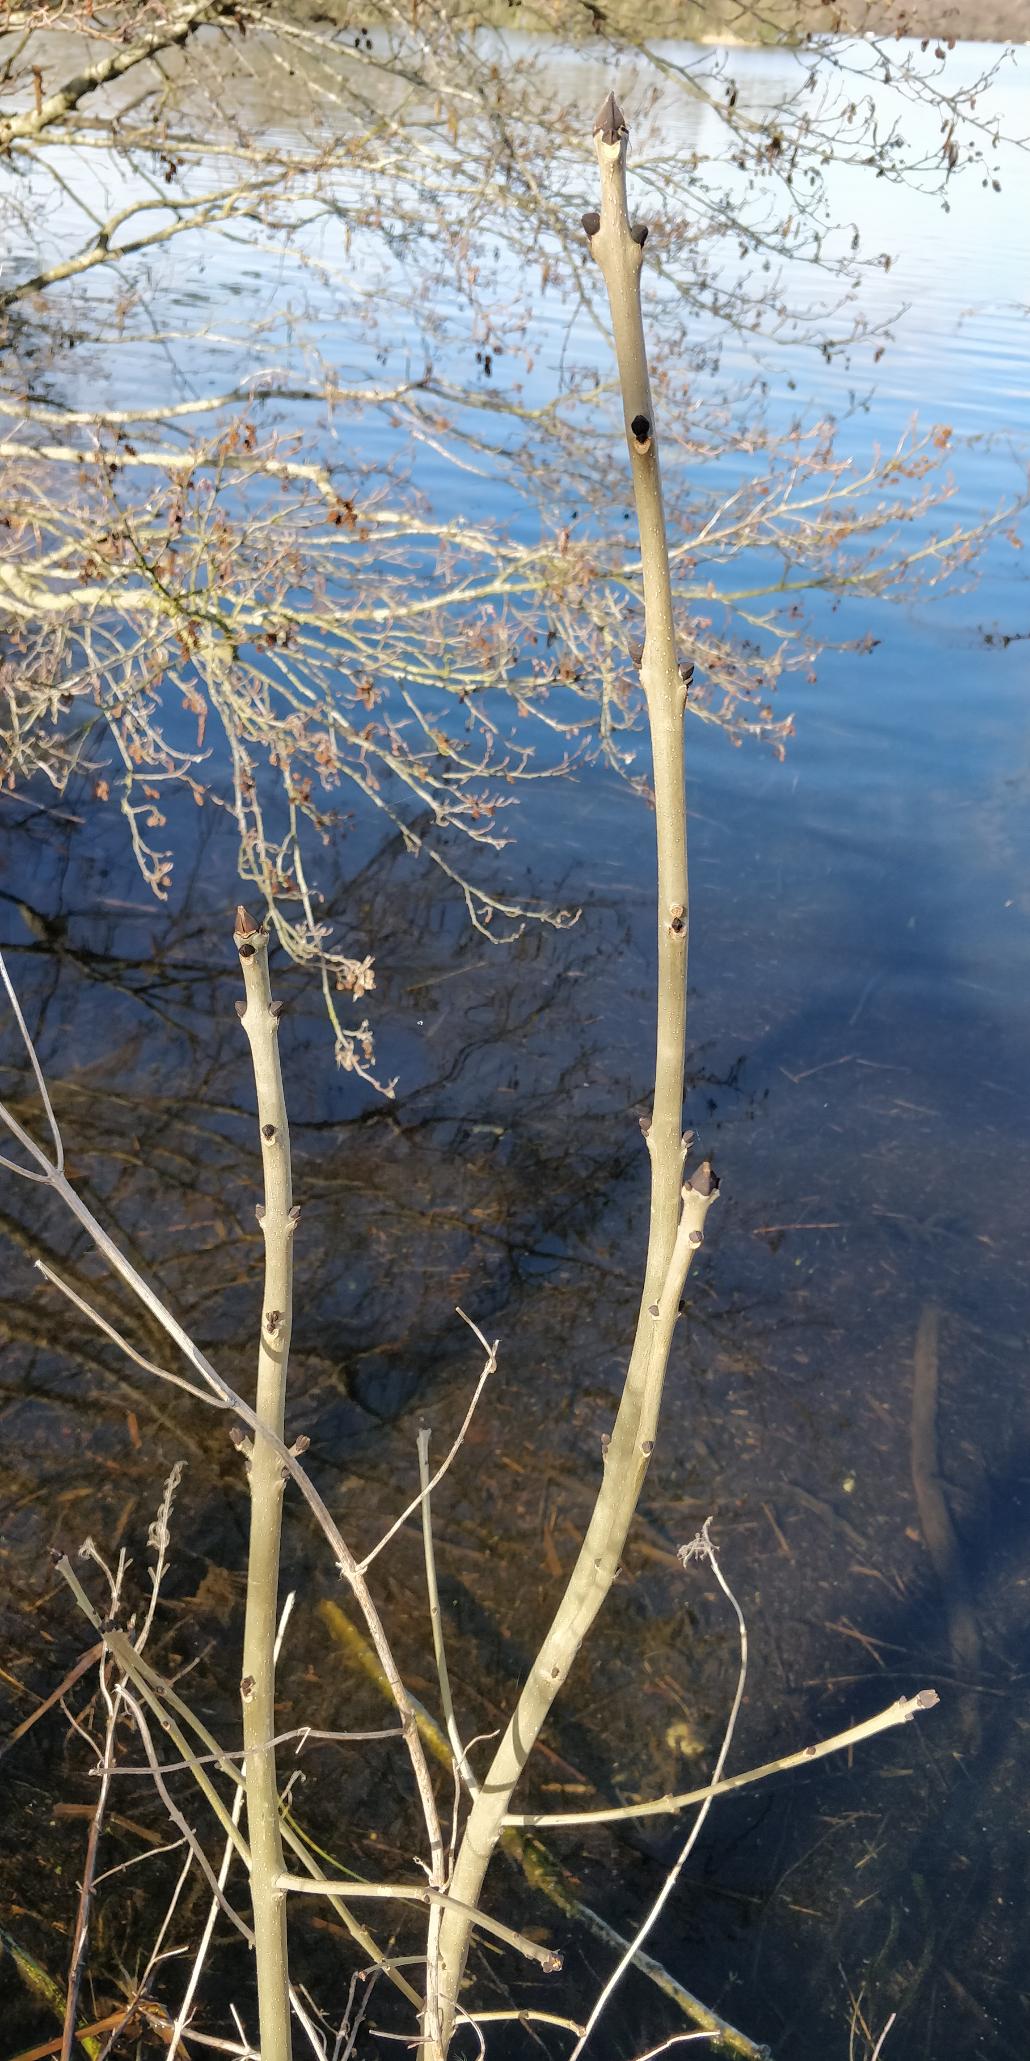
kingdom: Plantae
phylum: Tracheophyta
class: Magnoliopsida
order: Lamiales
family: Oleaceae
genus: Fraxinus
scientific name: Fraxinus excelsior
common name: Ask
